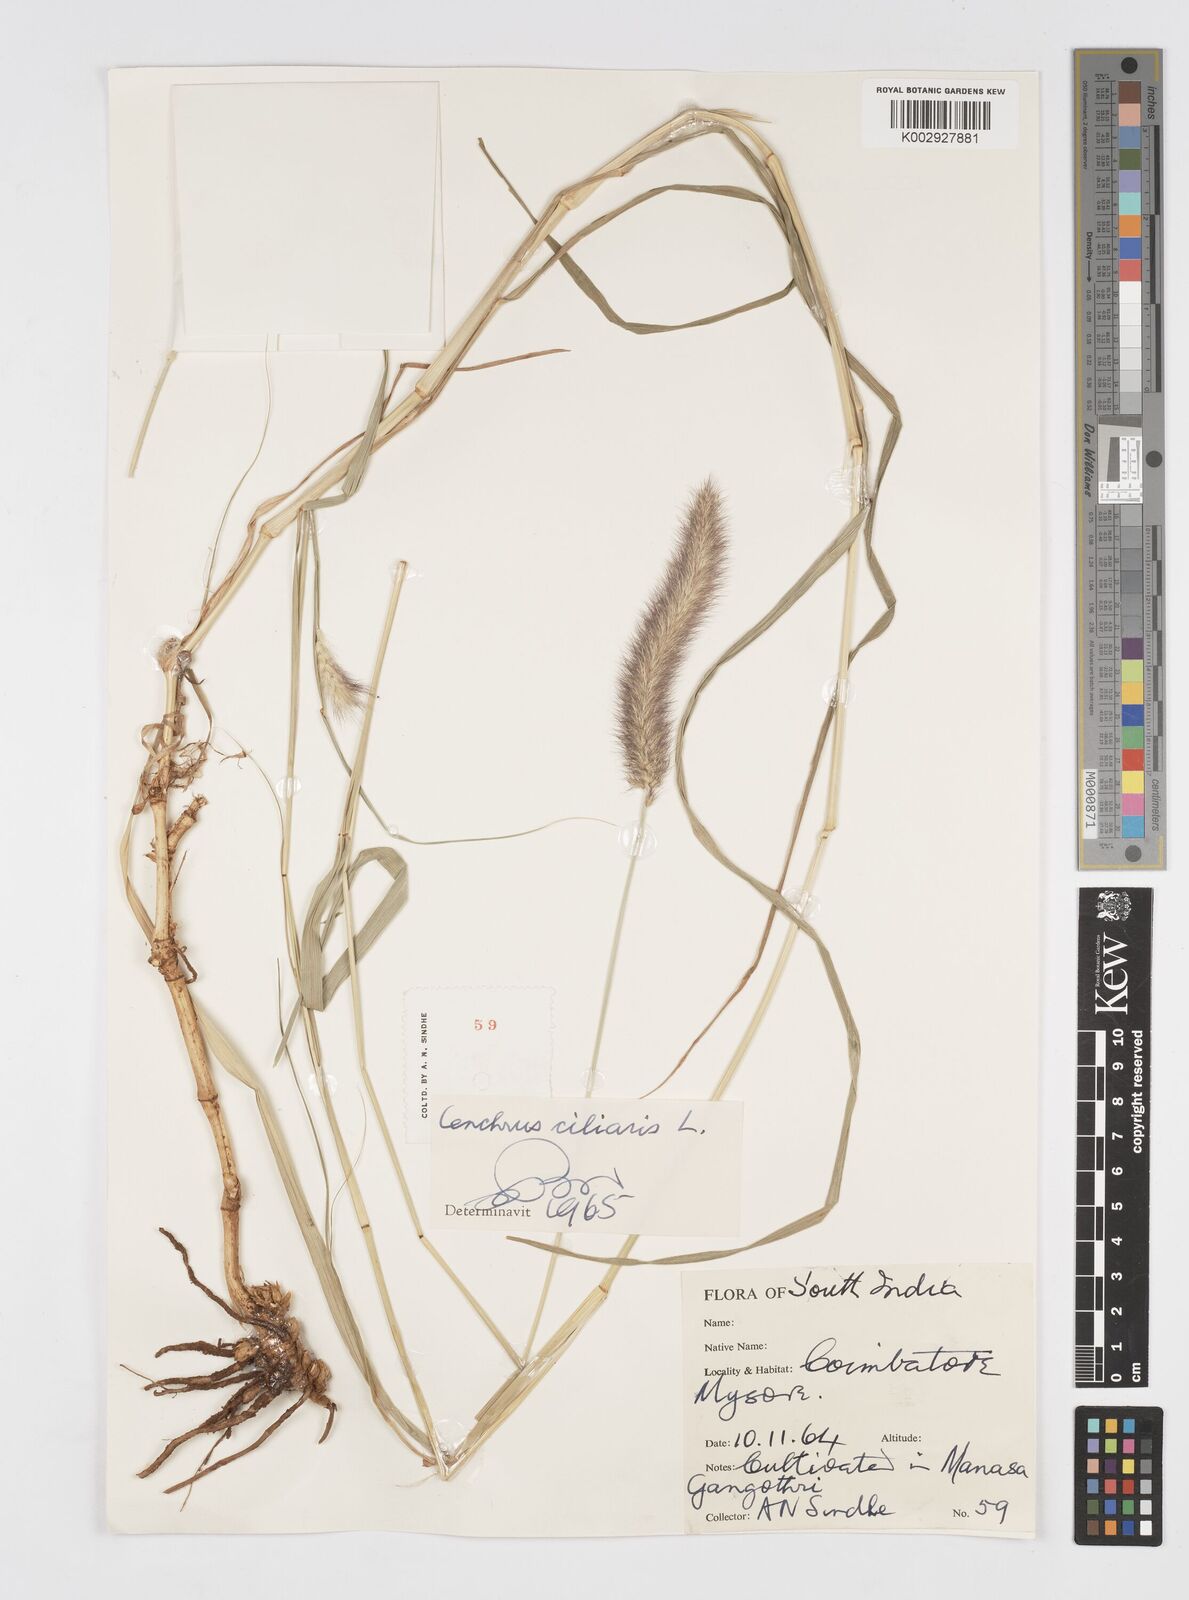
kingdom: Plantae
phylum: Tracheophyta
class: Liliopsida
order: Poales
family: Poaceae
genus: Cenchrus
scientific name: Cenchrus ciliaris
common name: Buffelgrass
